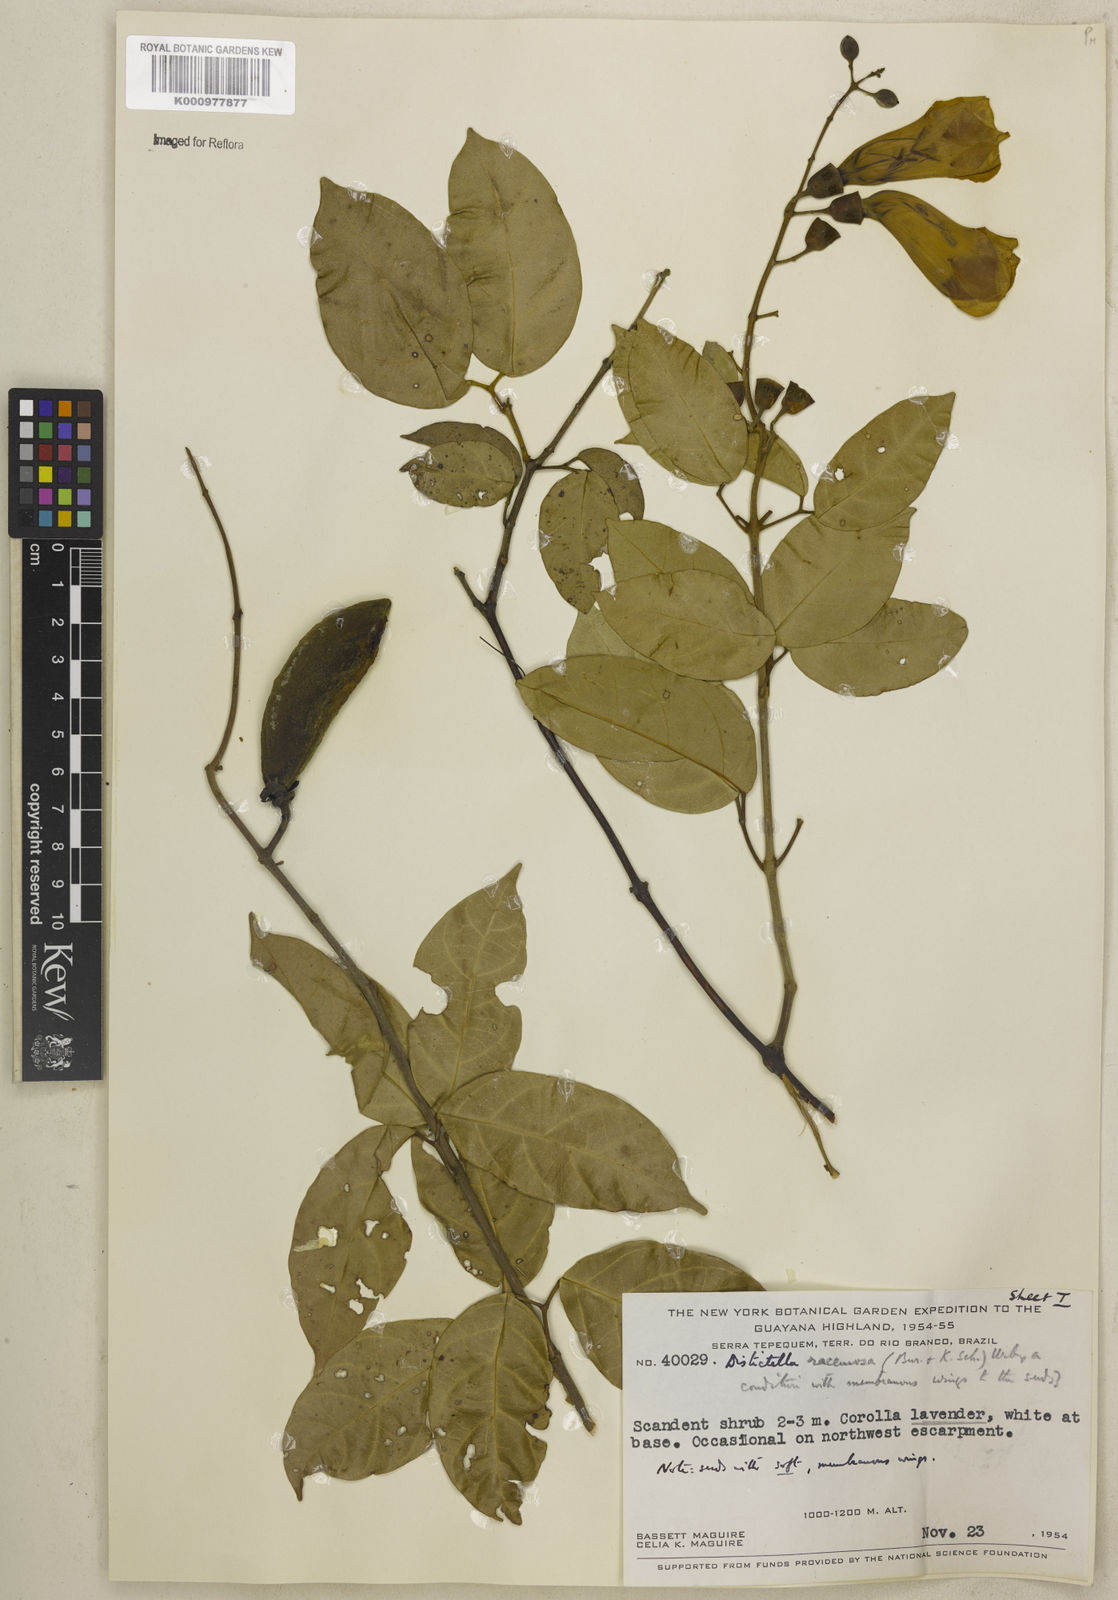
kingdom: Plantae
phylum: Tracheophyta
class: Magnoliopsida
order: Lamiales
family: Bignoniaceae
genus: Amphilophium
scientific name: Amphilophium racemosum
